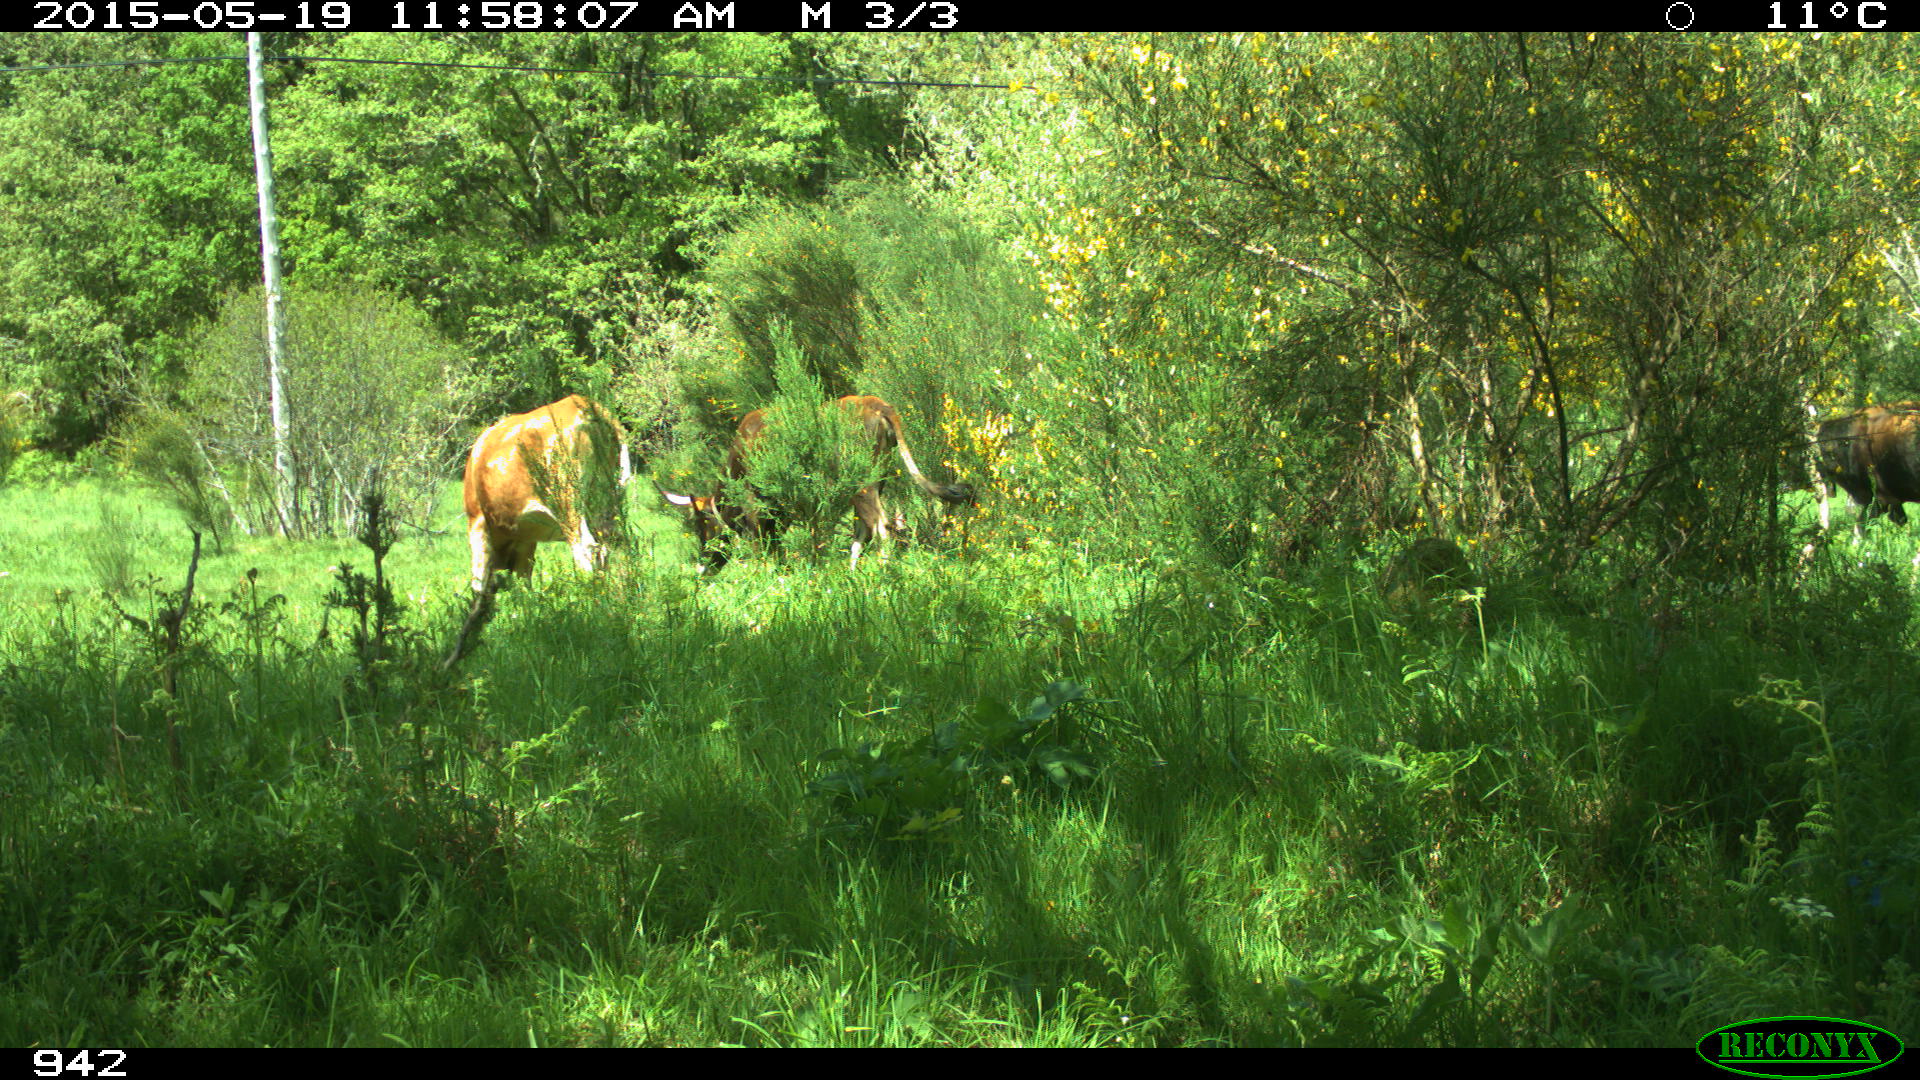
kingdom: Animalia
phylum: Chordata
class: Mammalia
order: Artiodactyla
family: Bovidae
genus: Bos
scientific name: Bos taurus
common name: Domesticated cattle
